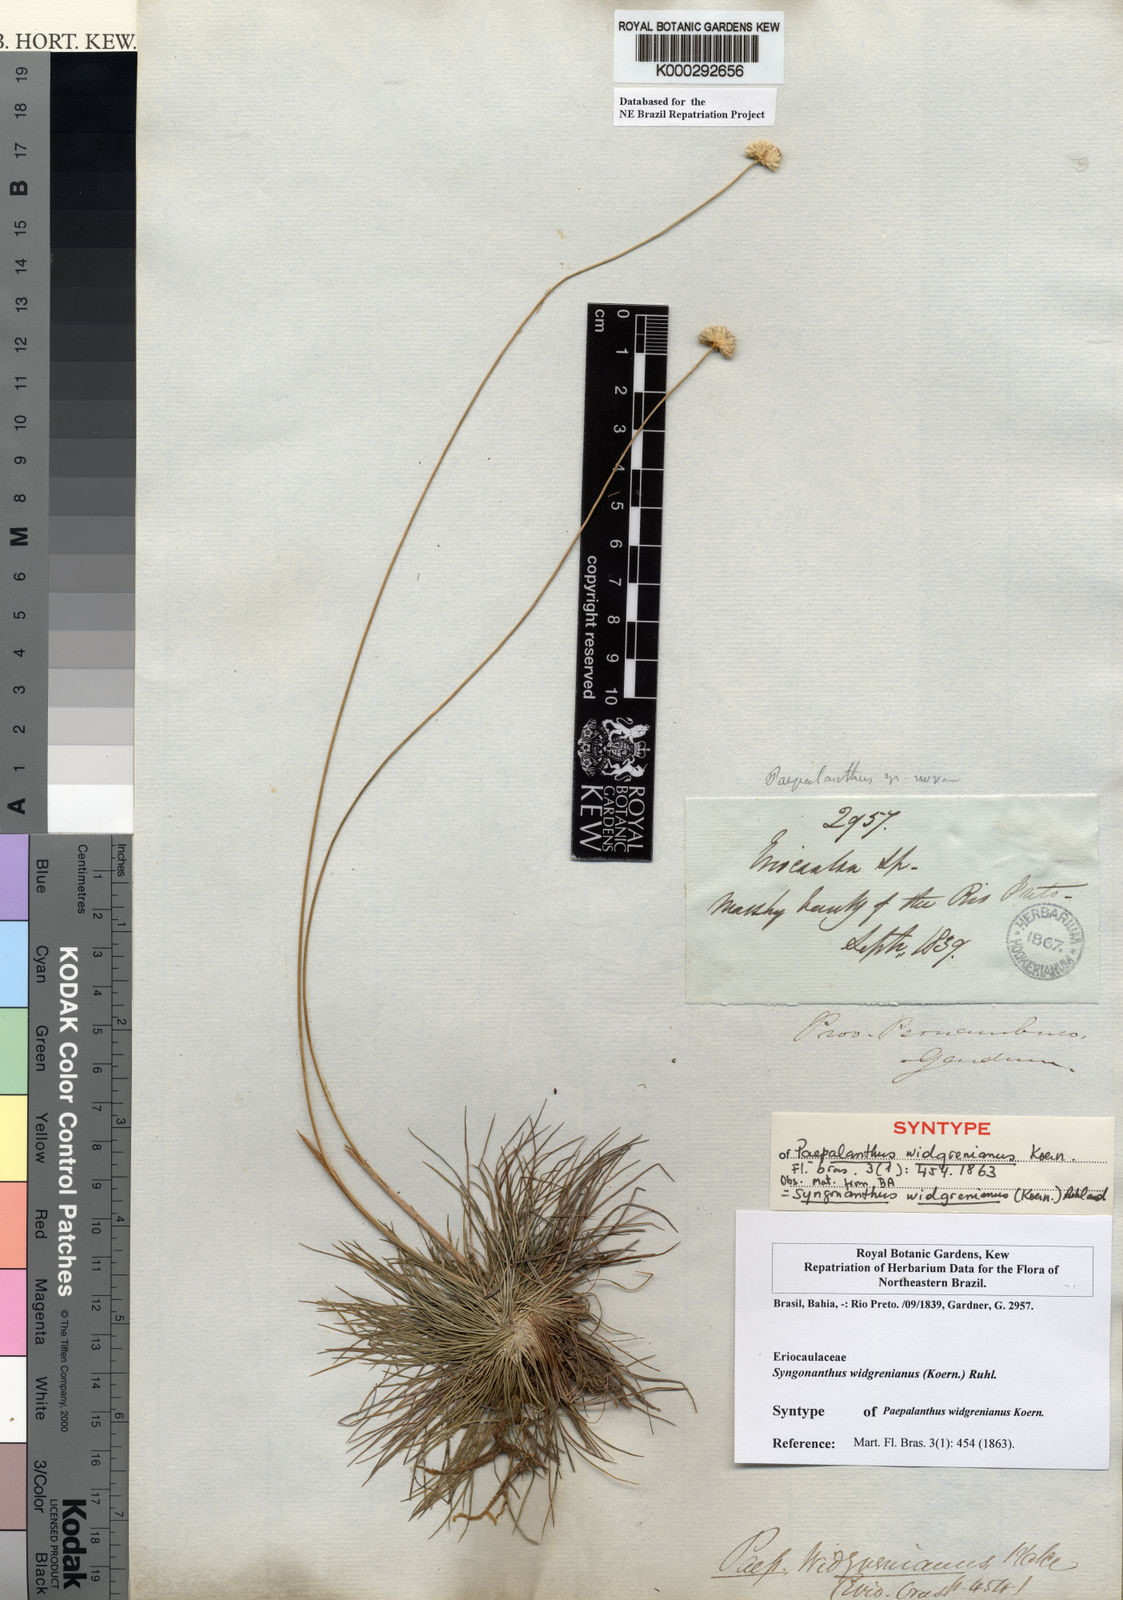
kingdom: Plantae
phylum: Tracheophyta
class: Liliopsida
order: Poales
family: Eriocaulaceae
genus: Syngonanthus
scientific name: Syngonanthus widgrenianus
